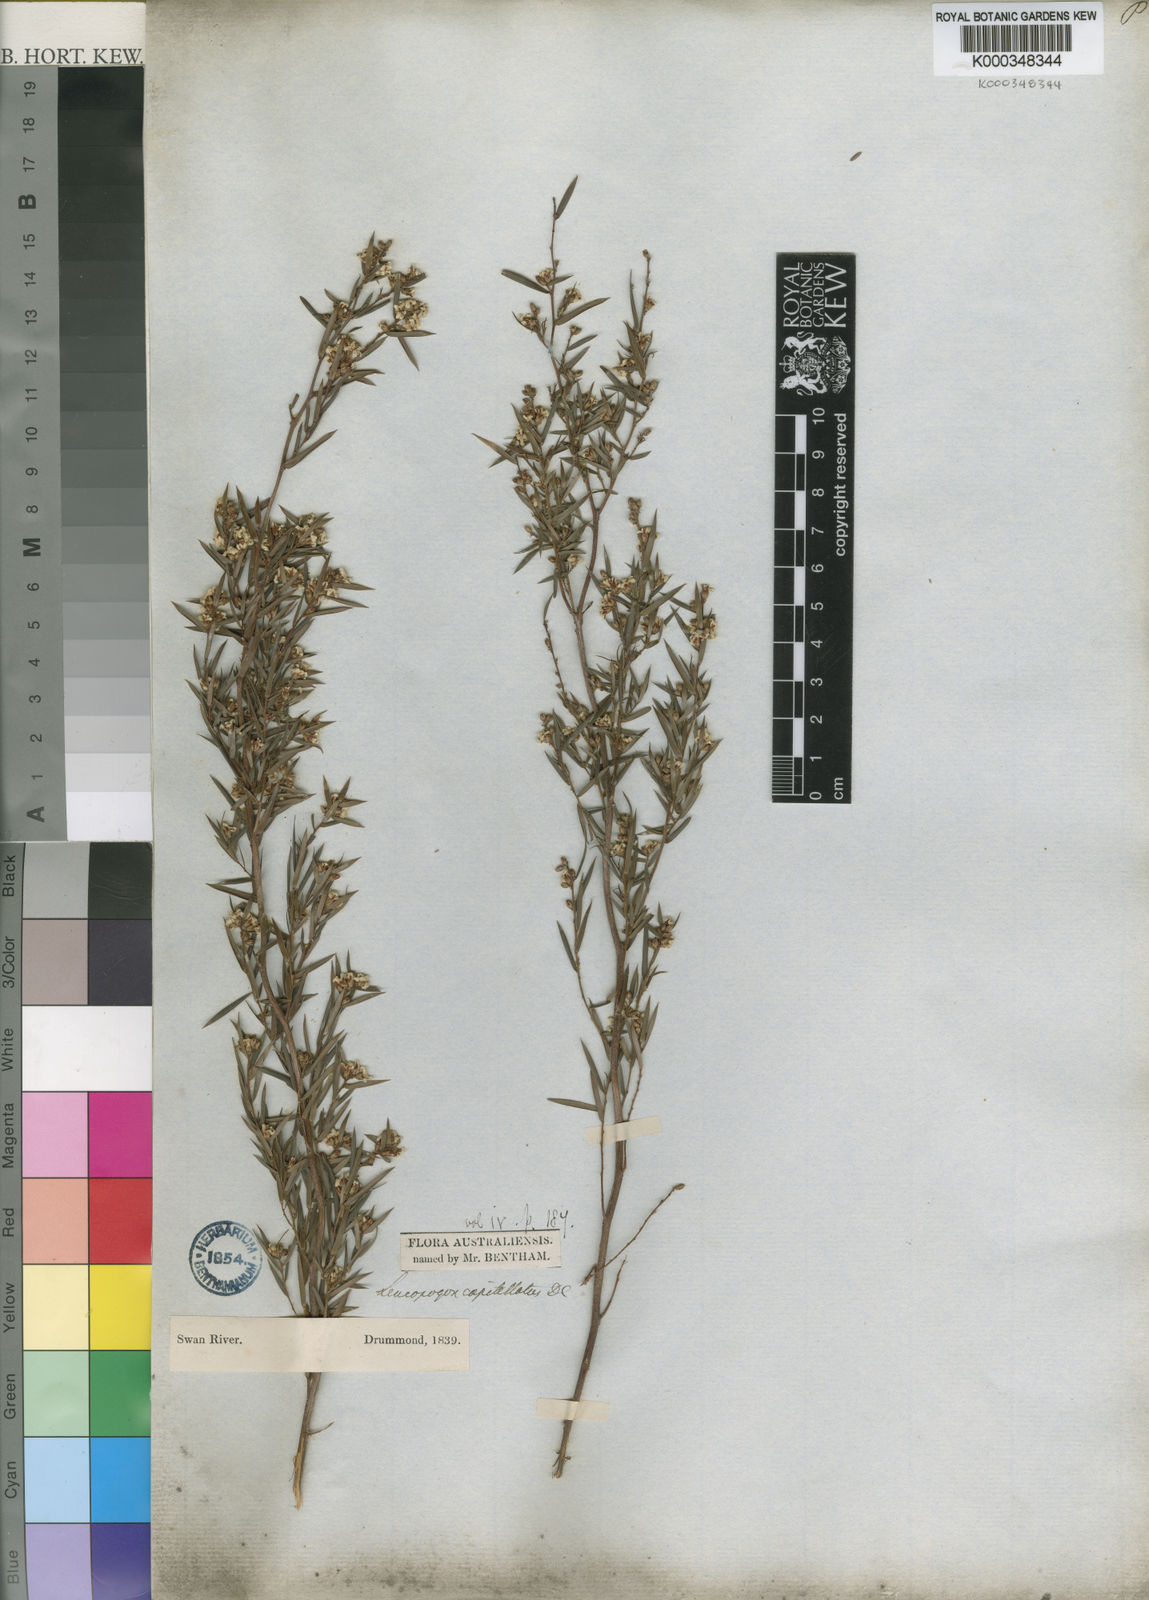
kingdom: Plantae
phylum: Tracheophyta
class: Magnoliopsida
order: Ericales
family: Ericaceae
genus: Leucopogon
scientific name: Leucopogon capitellatus
